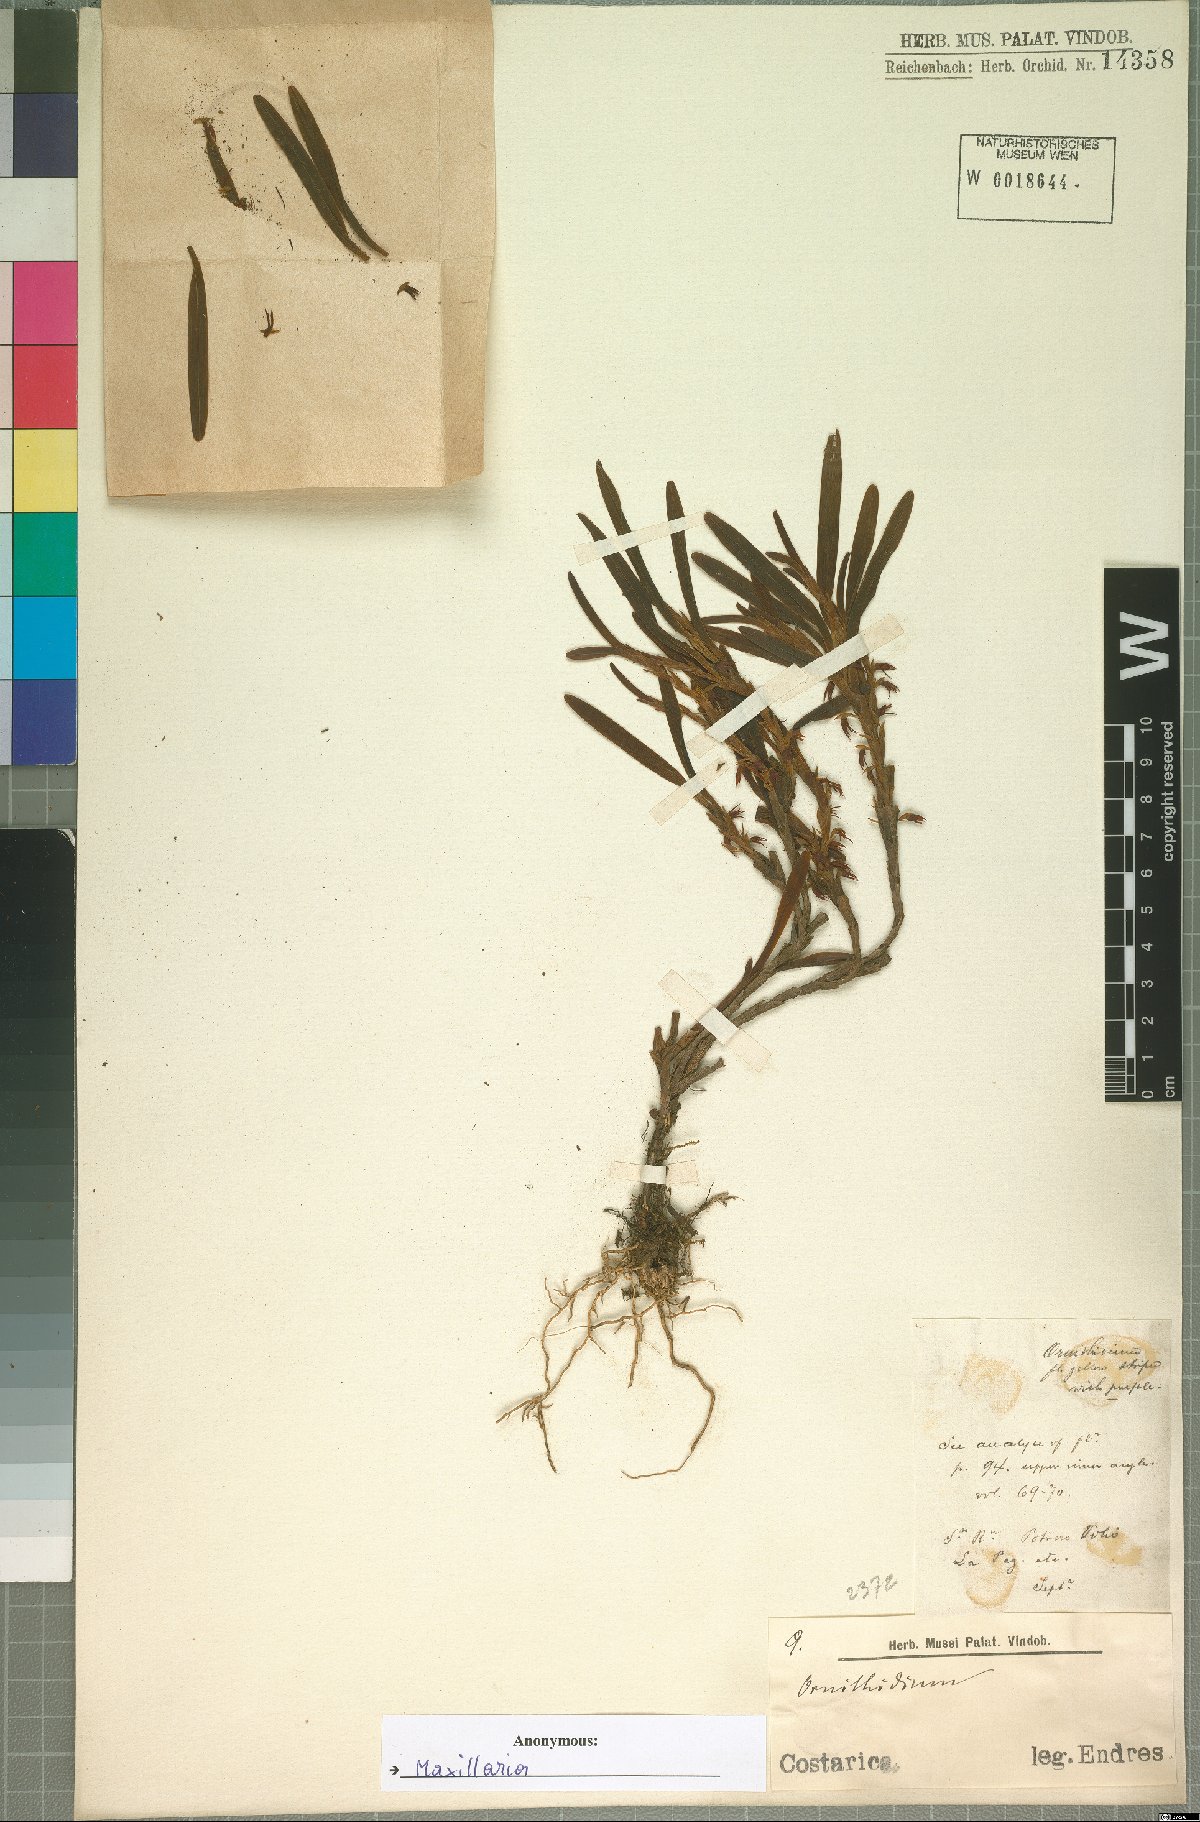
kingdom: Plantae
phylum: Tracheophyta
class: Liliopsida
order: Asparagales
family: Orchidaceae
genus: Maxillaria
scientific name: Maxillaria
